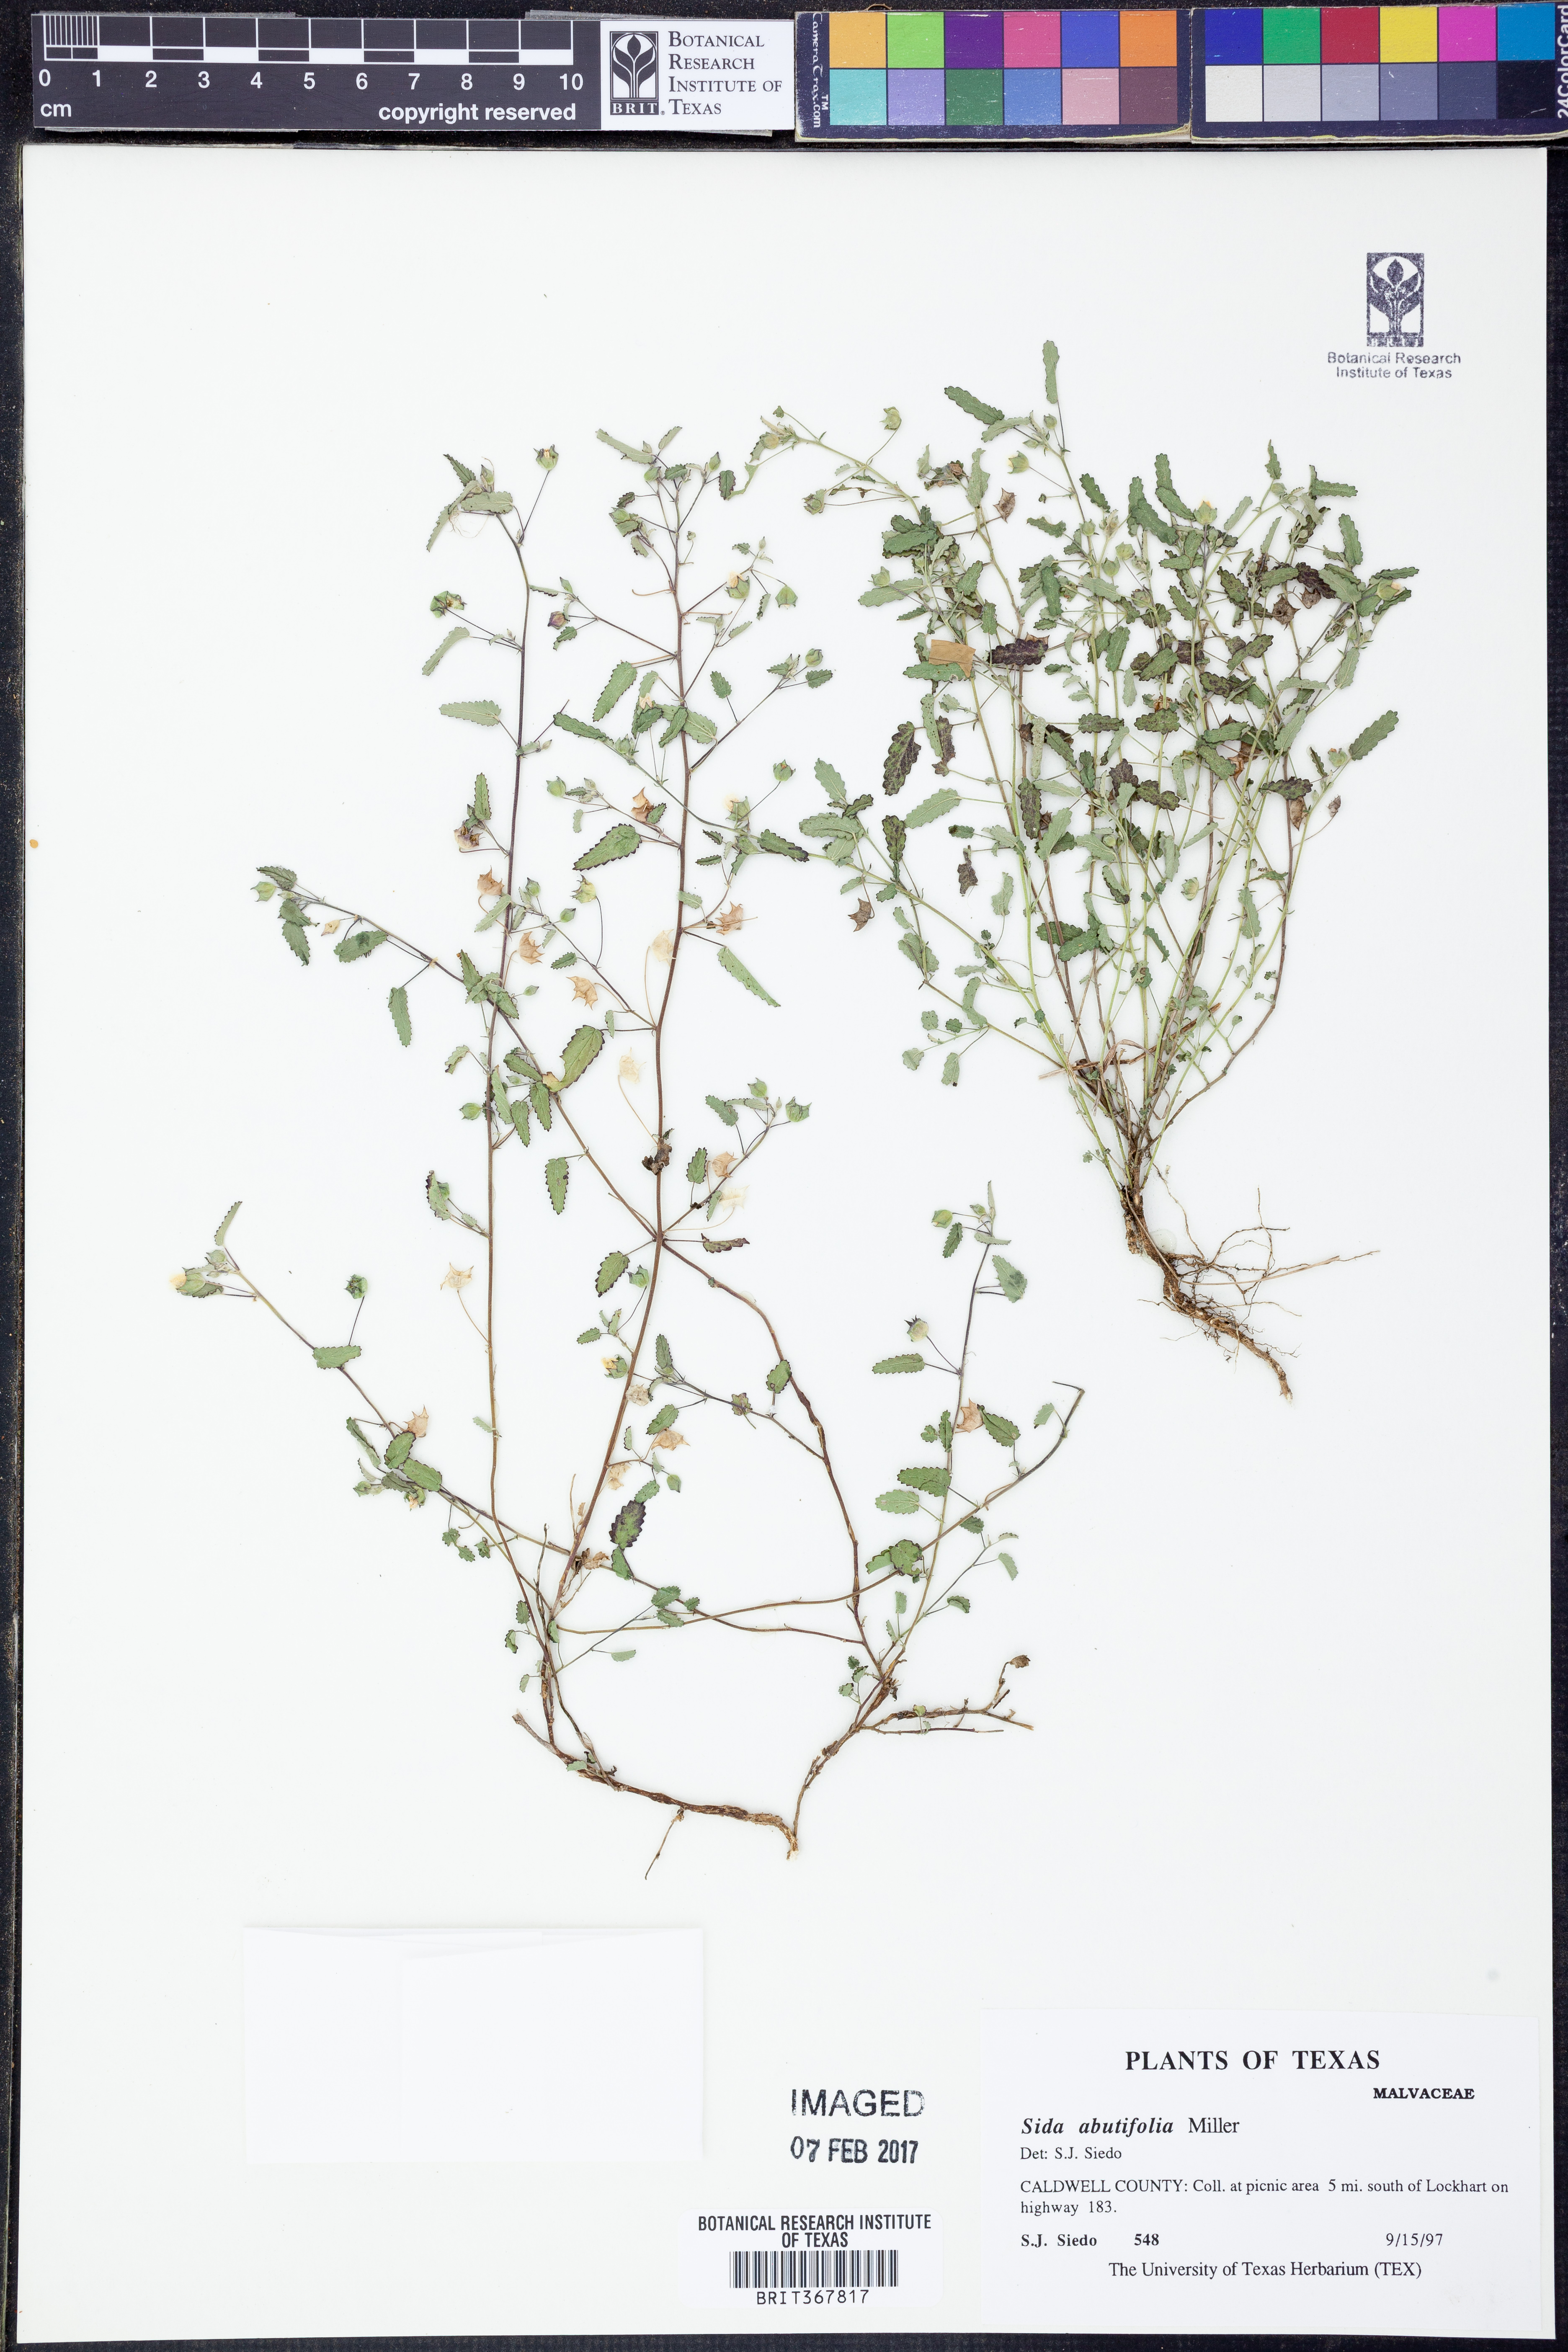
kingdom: Plantae
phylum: Tracheophyta
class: Magnoliopsida
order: Malvales
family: Malvaceae
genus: Sida
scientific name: Sida abutifolia
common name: Spreading fantails
